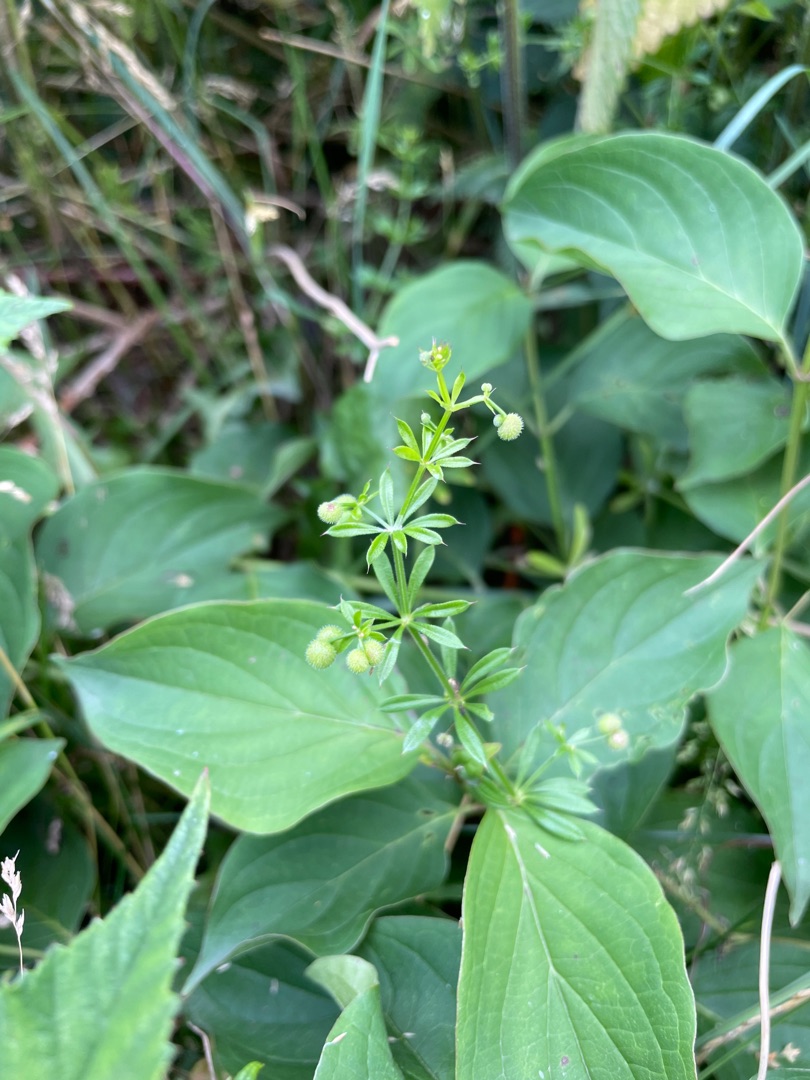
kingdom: Plantae
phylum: Tracheophyta
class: Magnoliopsida
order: Gentianales
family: Rubiaceae
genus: Galium
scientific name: Galium aparine
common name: Burre-snerre
